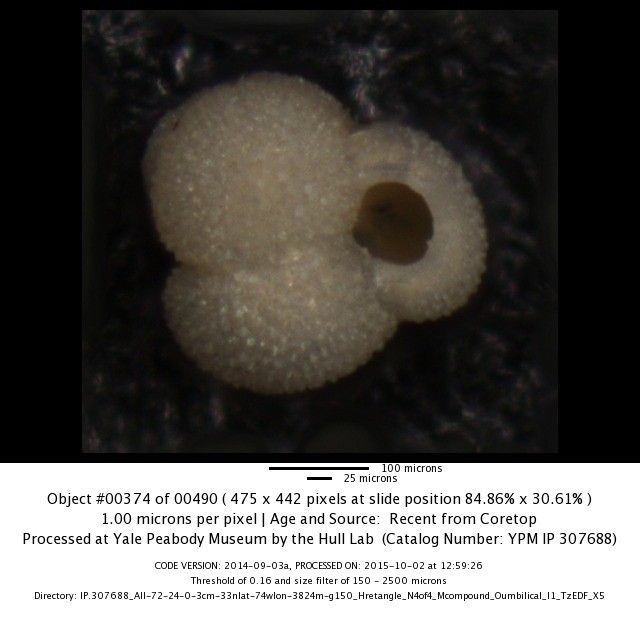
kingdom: Chromista
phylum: Foraminifera
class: Globothalamea
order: Rotaliida
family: Globigerinidae
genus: Globigerinoides
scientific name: Globigerinoides ruber
